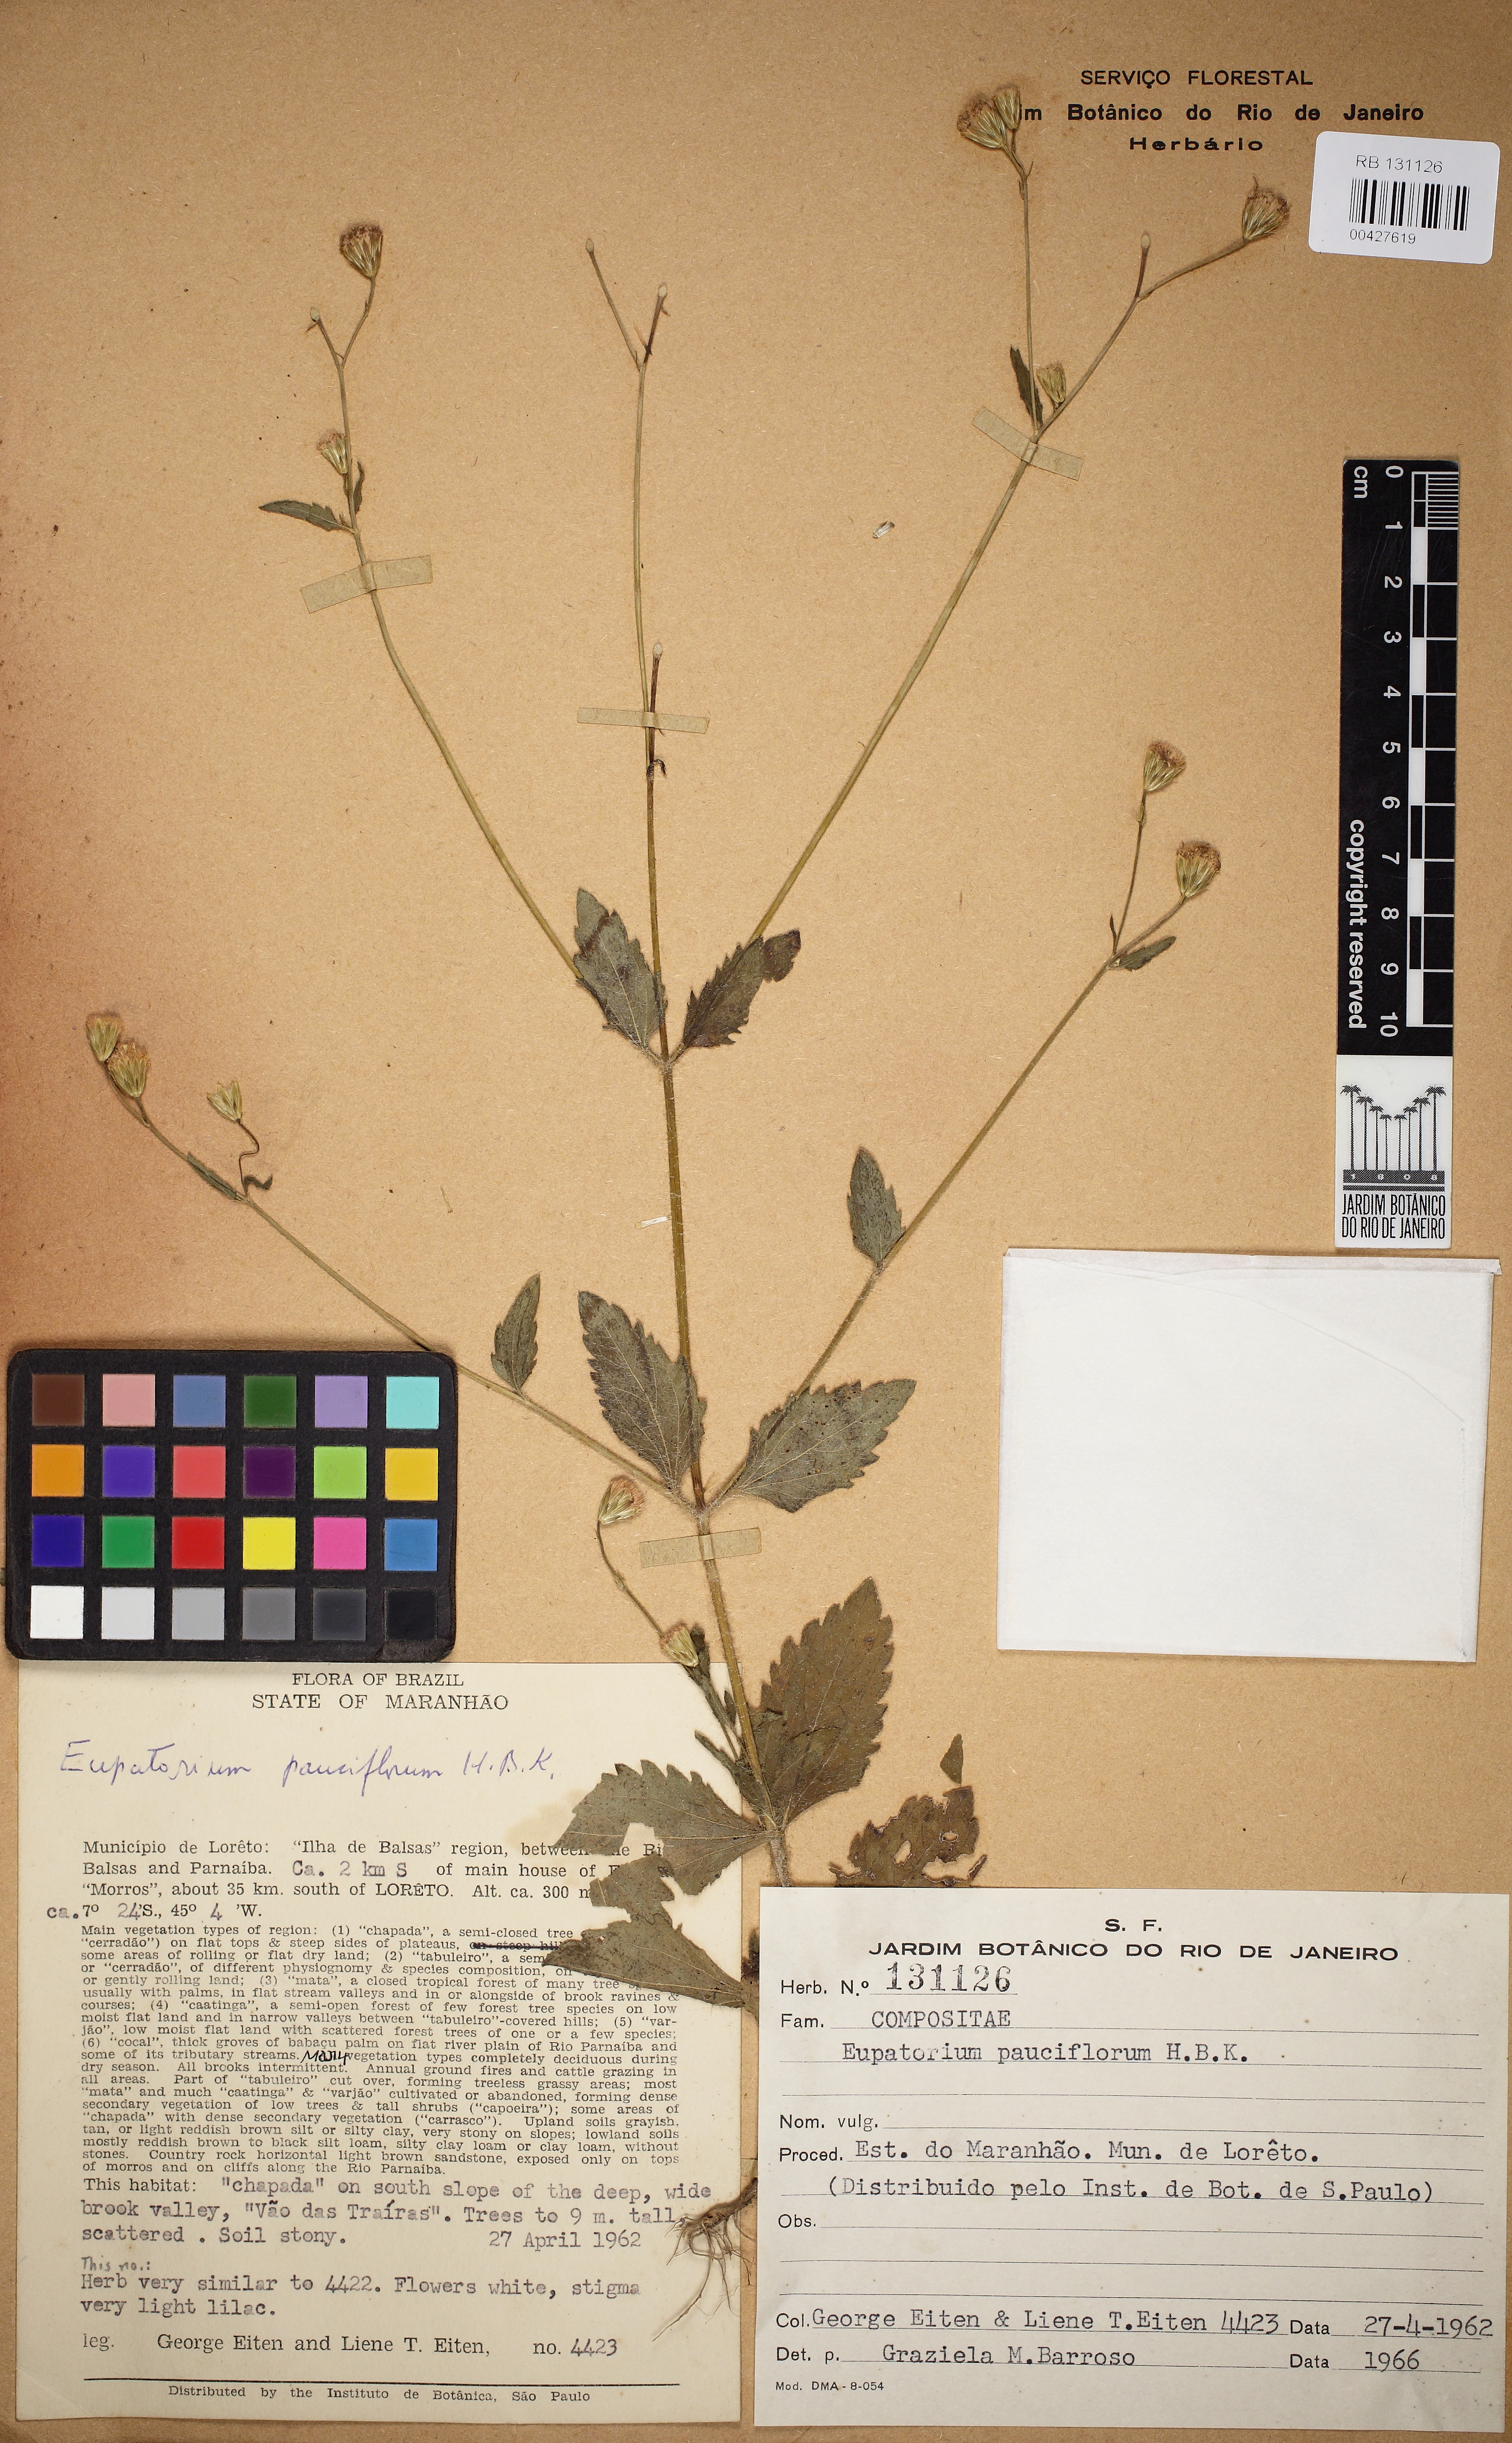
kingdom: Plantae
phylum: Tracheophyta
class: Magnoliopsida
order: Asterales
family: Asteraceae
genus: Praxelis
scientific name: Praxelis diffusa
